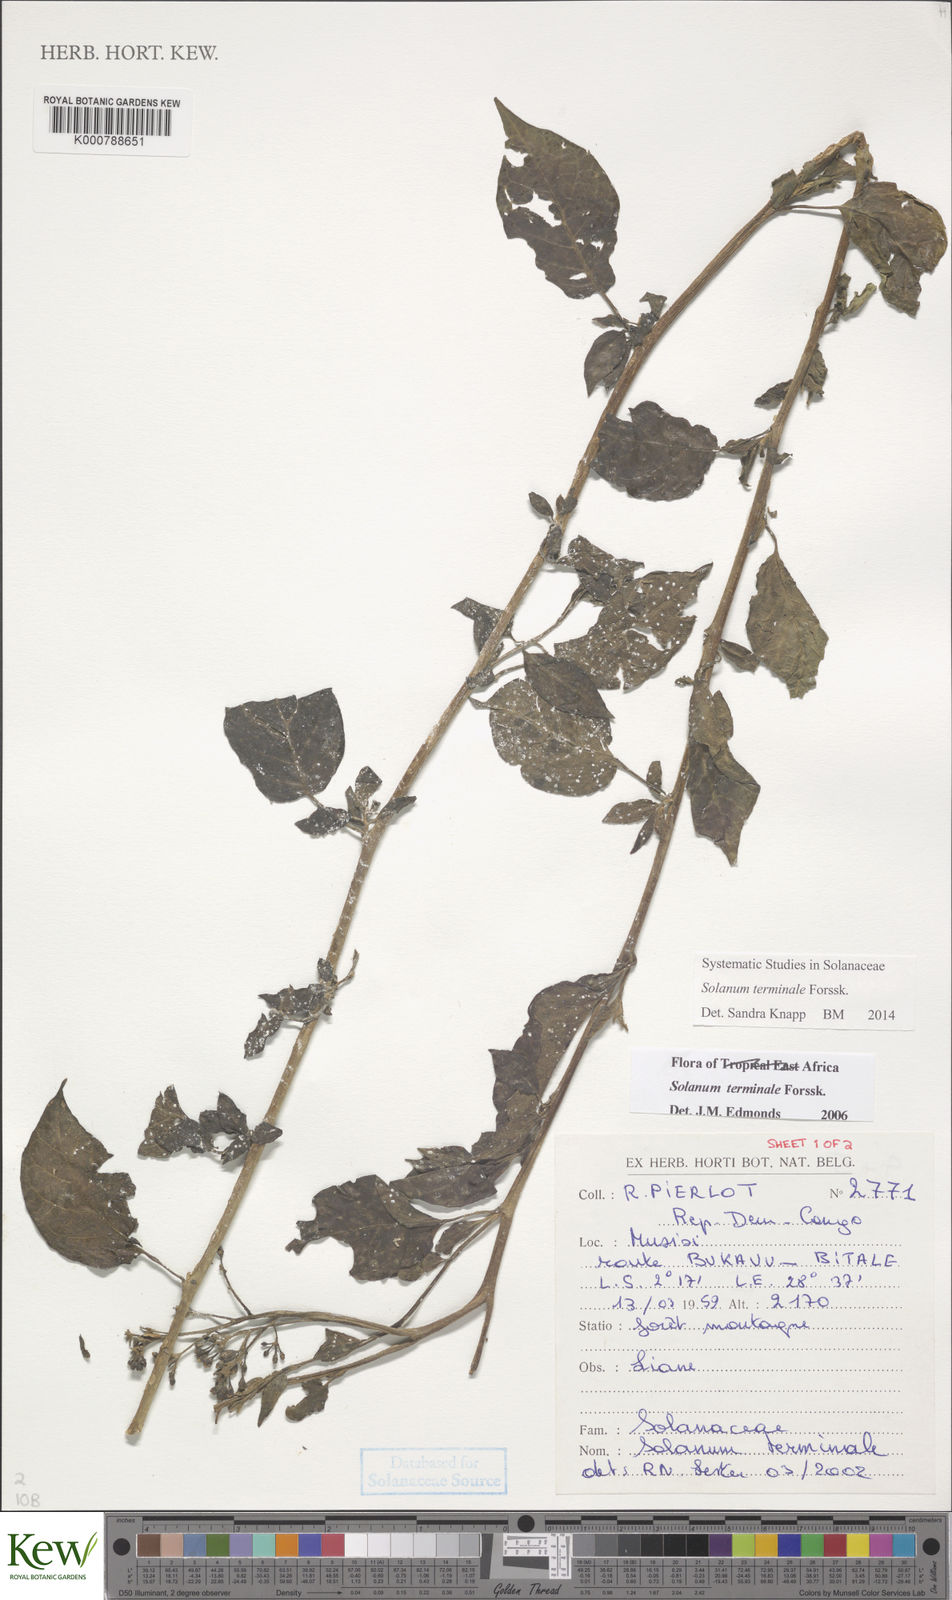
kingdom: Plantae
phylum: Tracheophyta
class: Magnoliopsida
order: Solanales
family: Solanaceae
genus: Solanum
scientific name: Solanum terminale
